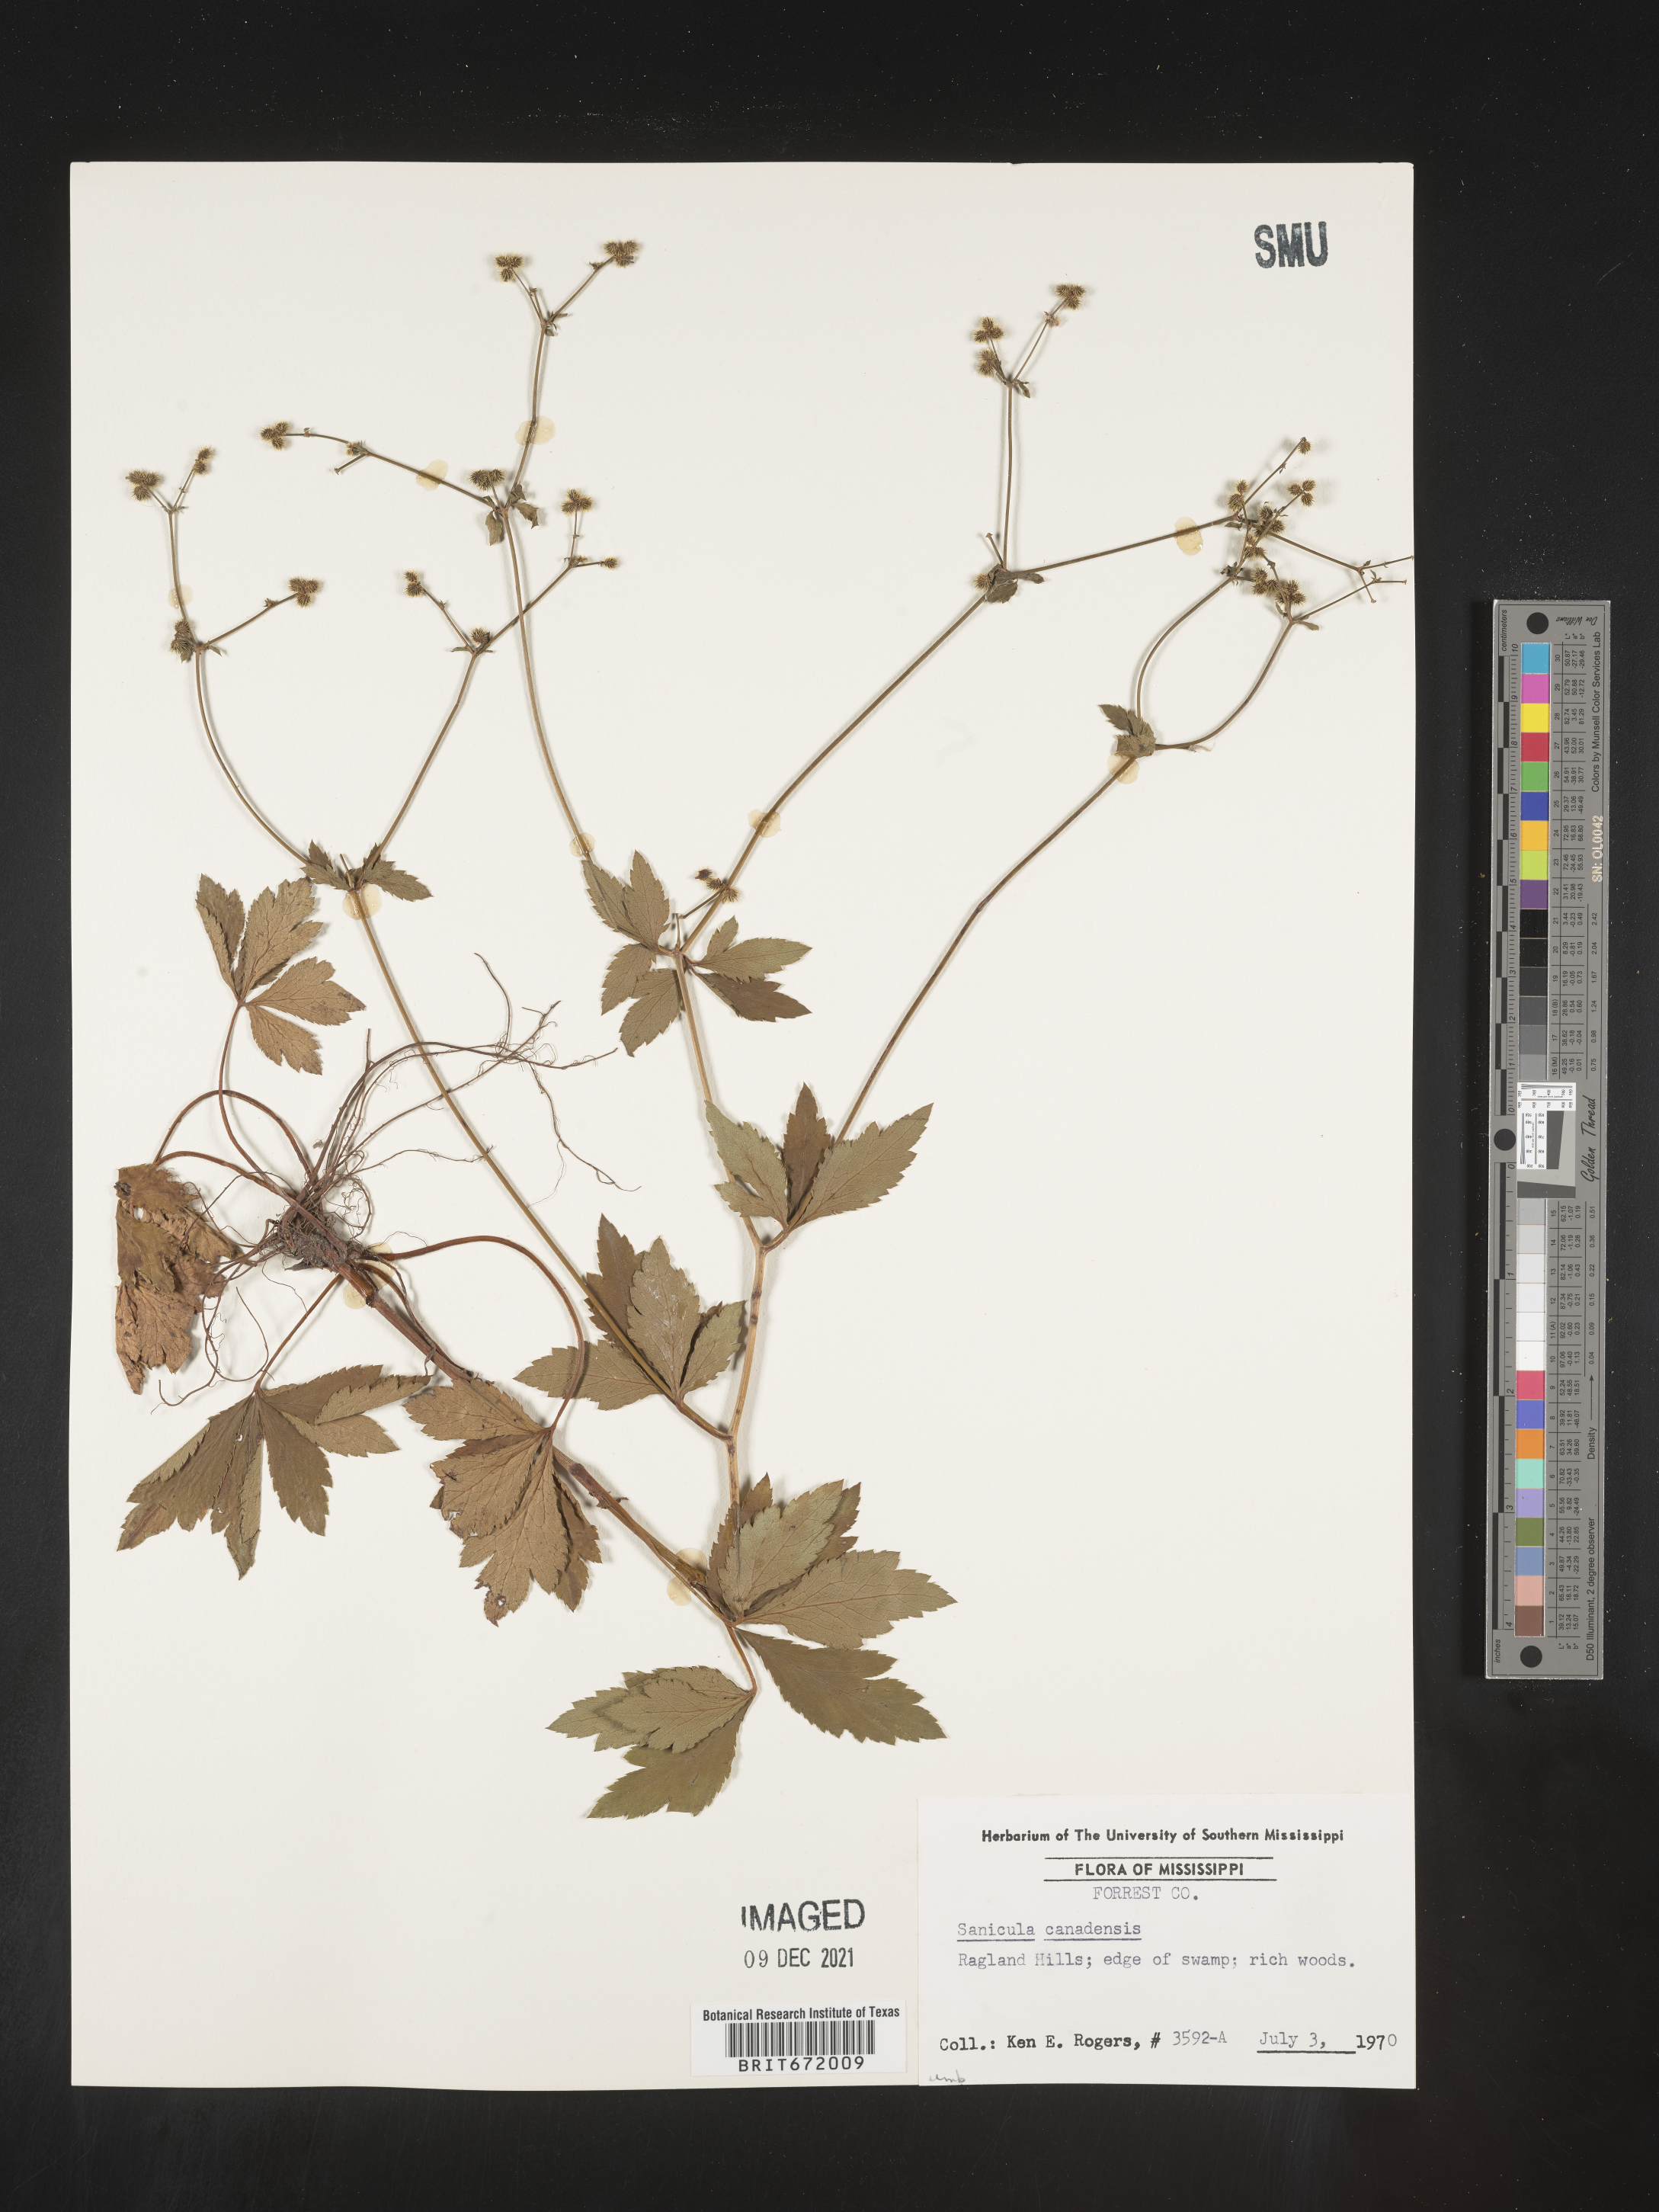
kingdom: Plantae
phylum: Tracheophyta
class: Magnoliopsida
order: Apiales
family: Apiaceae
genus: Sanicula
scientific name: Sanicula canadensis
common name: Canada sanicle
